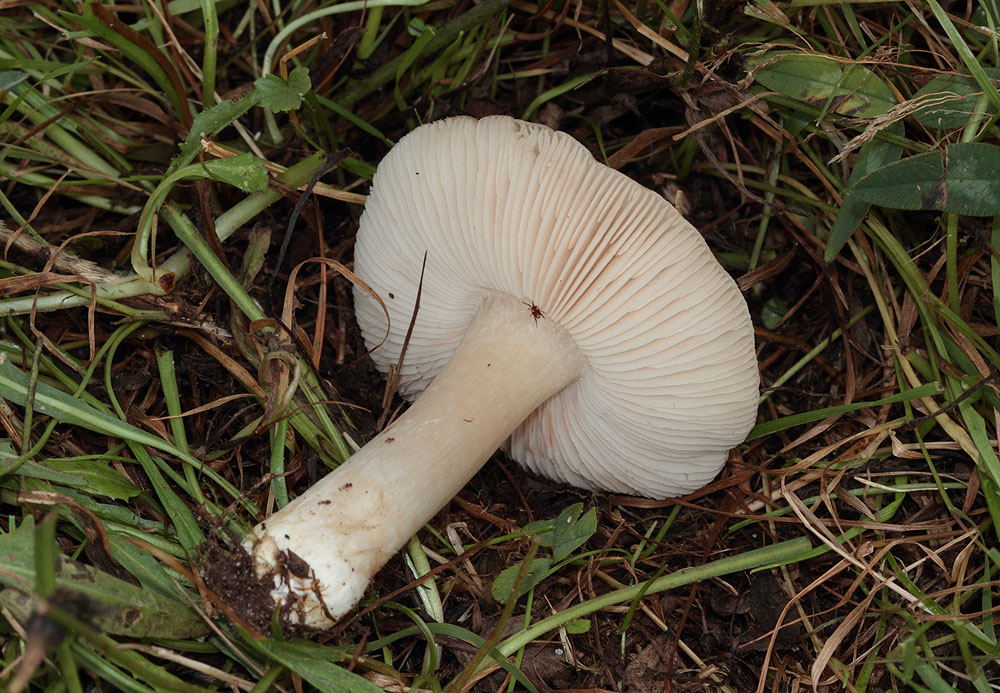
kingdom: Fungi
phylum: Basidiomycota
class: Agaricomycetes
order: Agaricales
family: Entolomataceae
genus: Entoloma
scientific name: Entoloma prunuloides
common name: mel-rødblad
